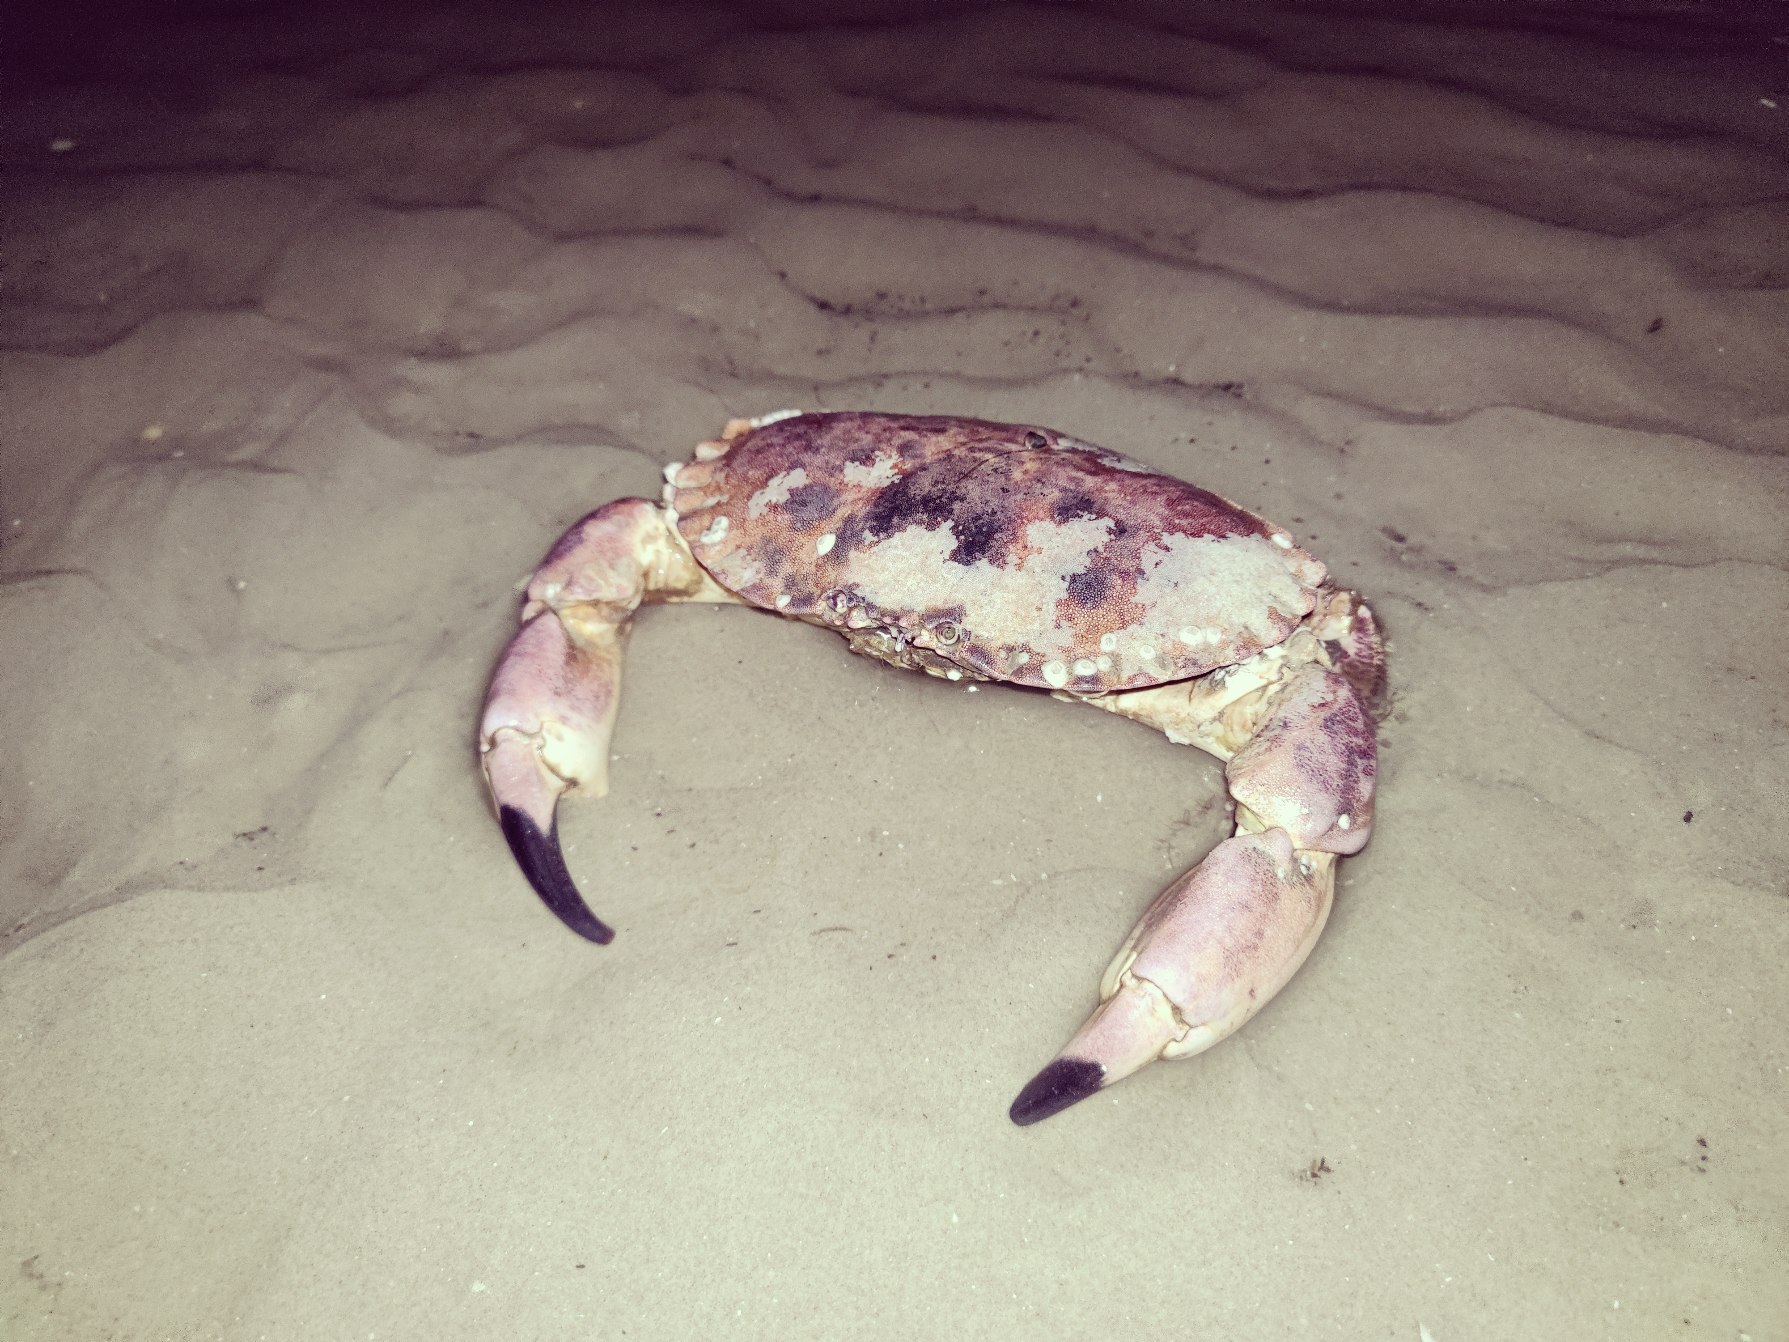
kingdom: Animalia
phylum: Arthropoda
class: Malacostraca
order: Decapoda
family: Cancridae
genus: Cancer
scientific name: Cancer pagurus
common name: Taskekrabbe
